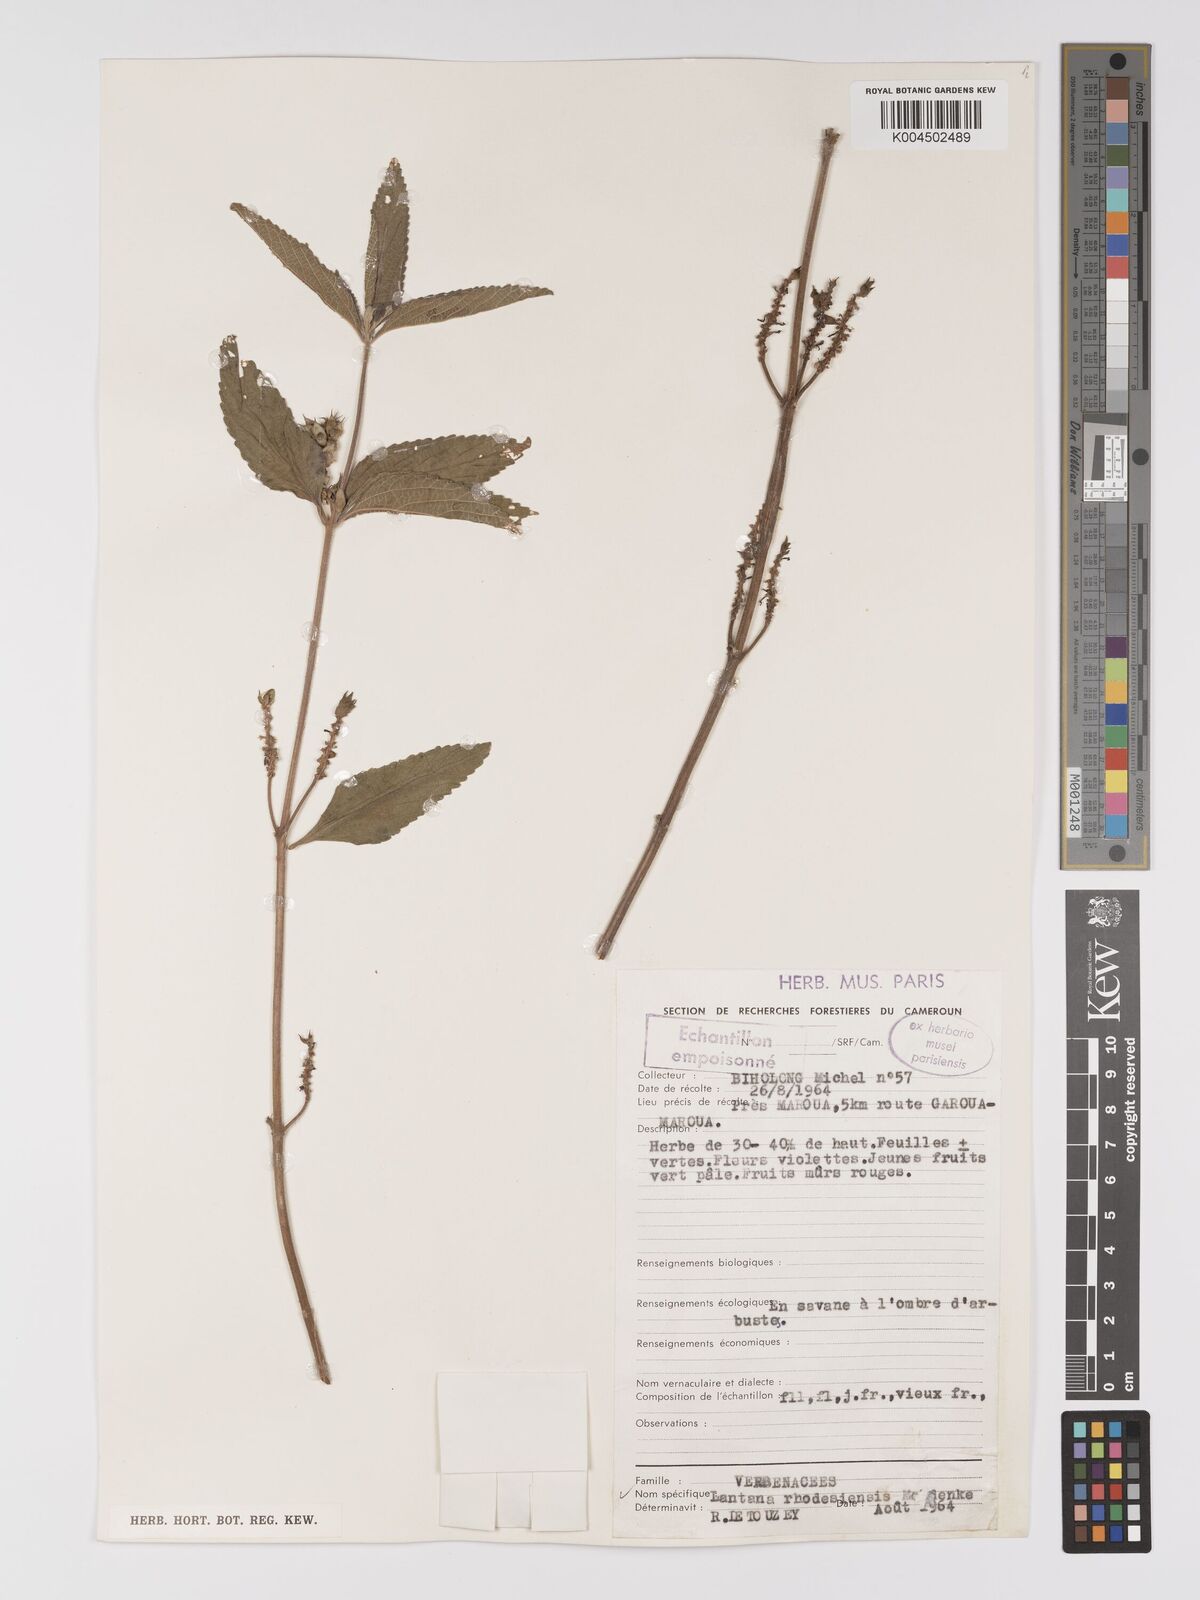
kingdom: Plantae
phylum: Tracheophyta
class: Magnoliopsida
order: Lamiales
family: Verbenaceae
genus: Lantana
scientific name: Lantana ukambensis
